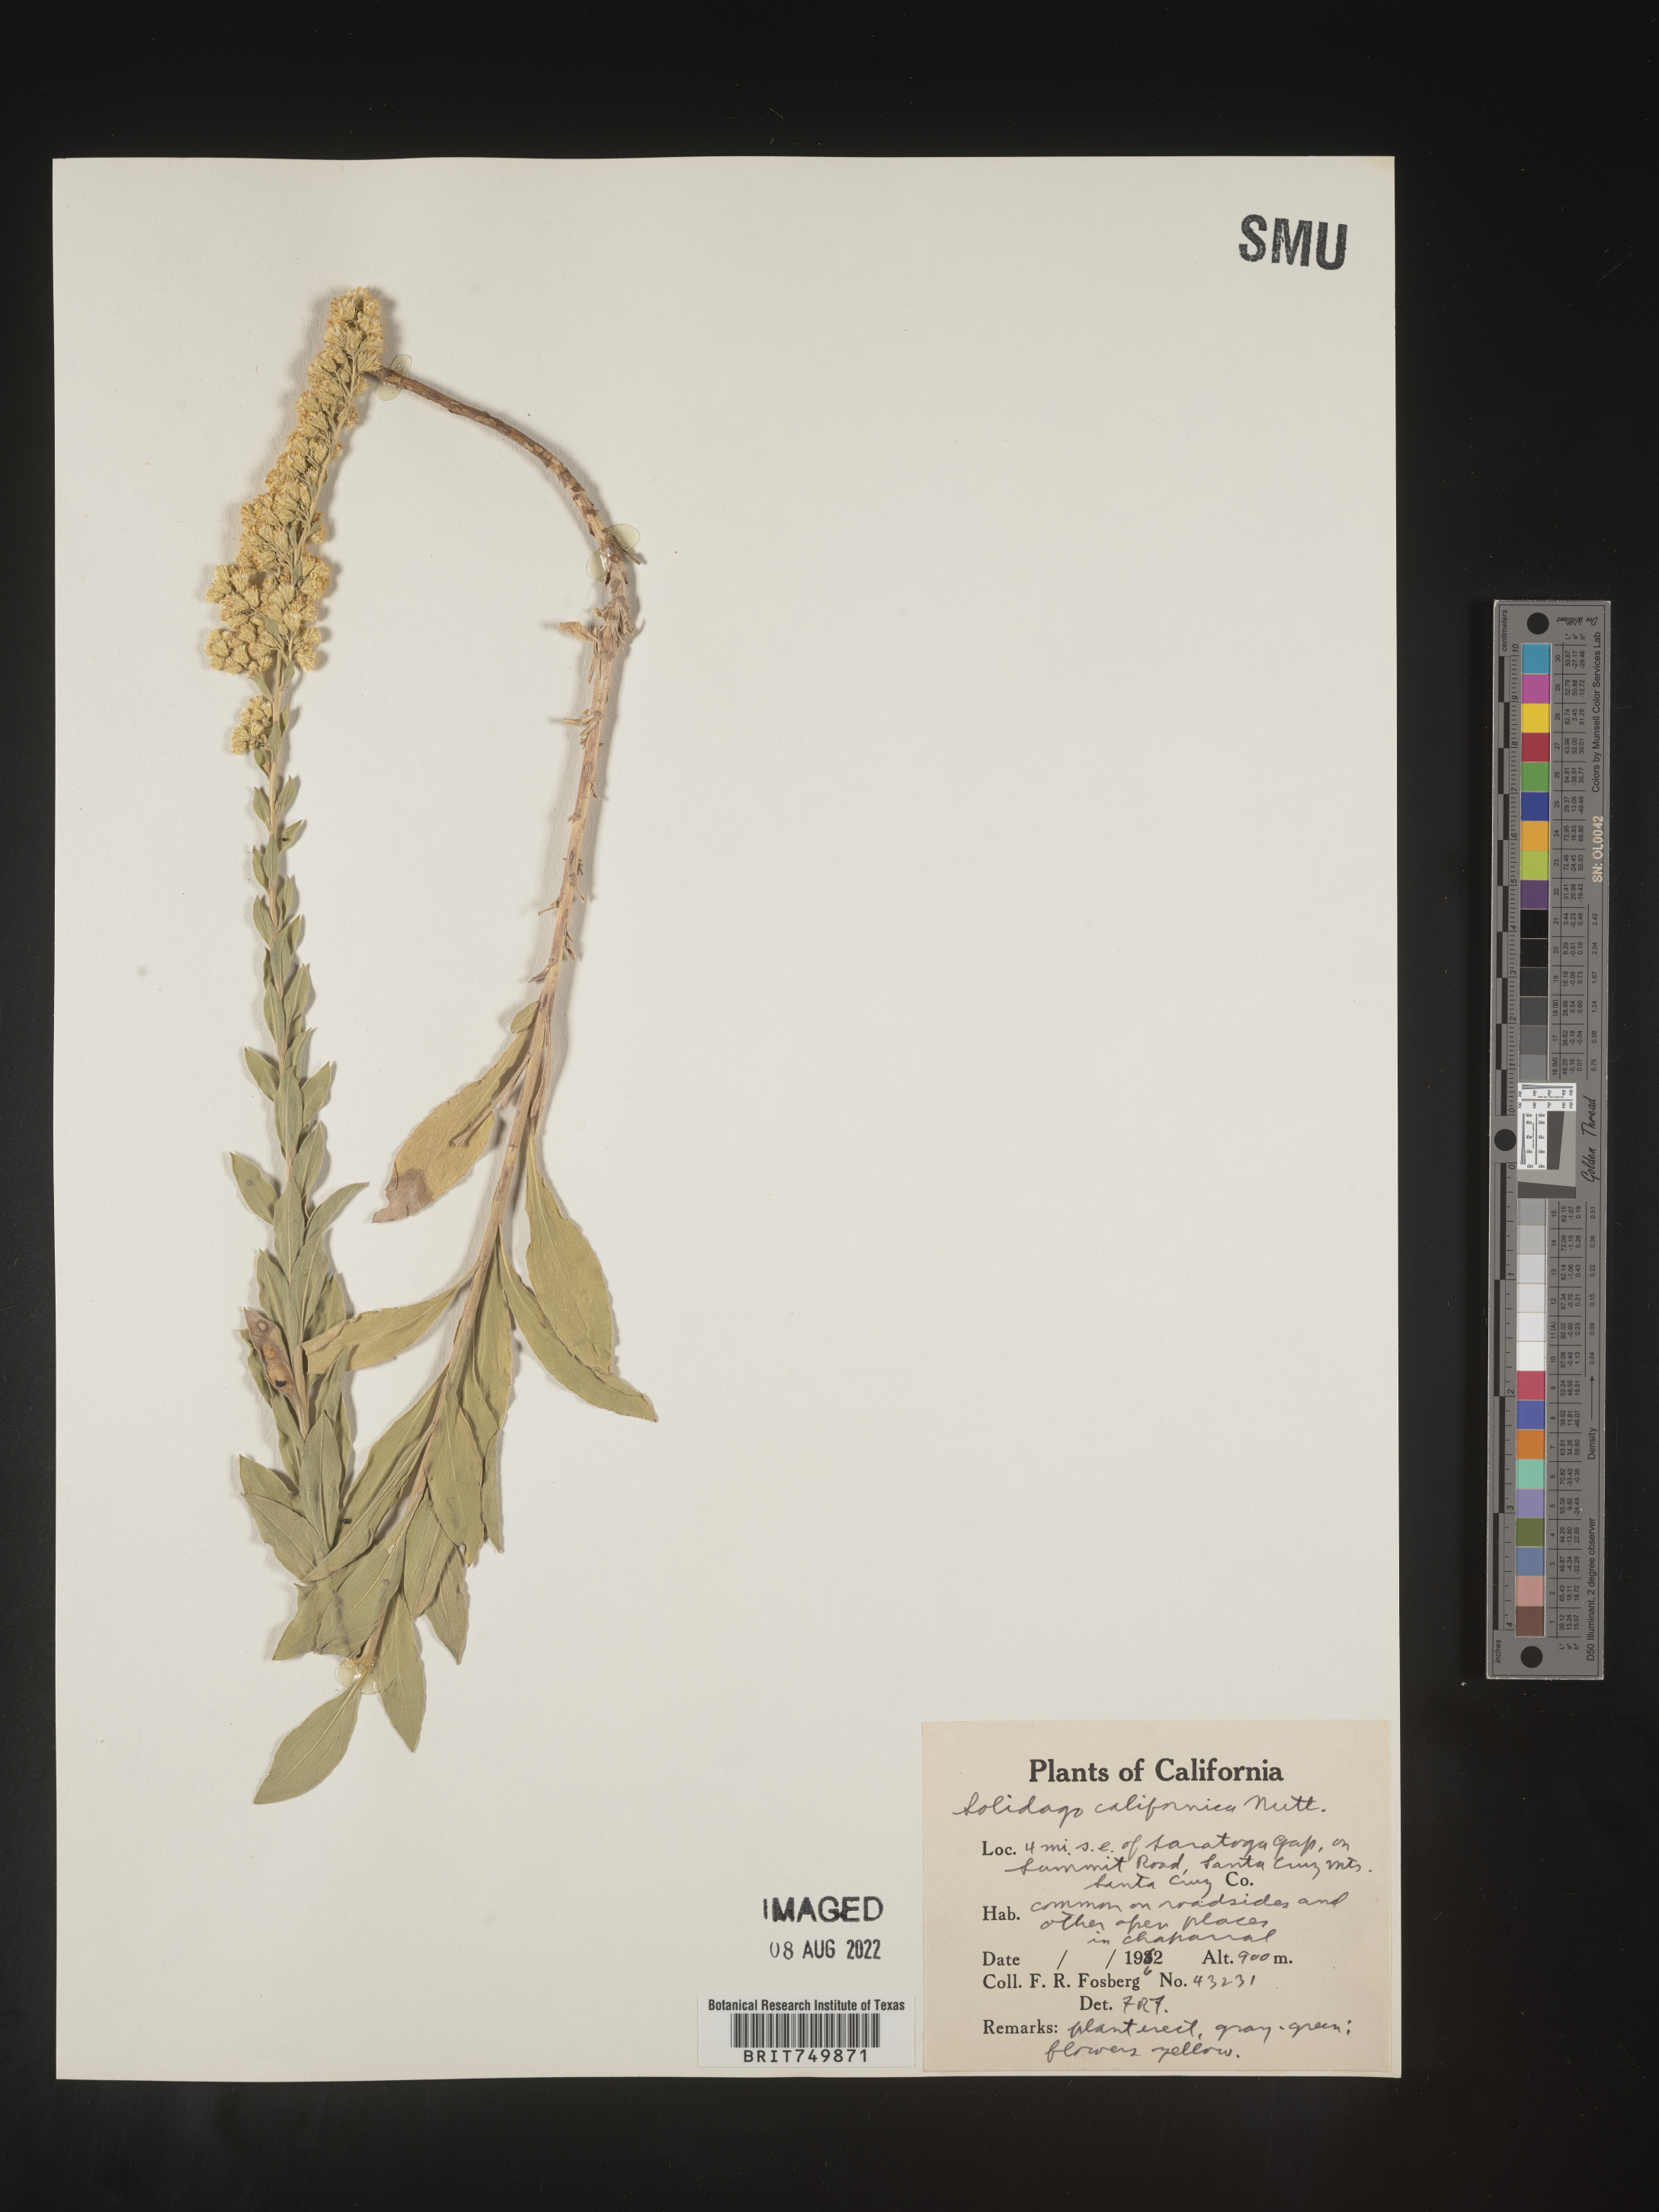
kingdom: Plantae
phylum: Tracheophyta
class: Magnoliopsida
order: Asterales
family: Asteraceae
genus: Solidago
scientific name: Solidago californica
